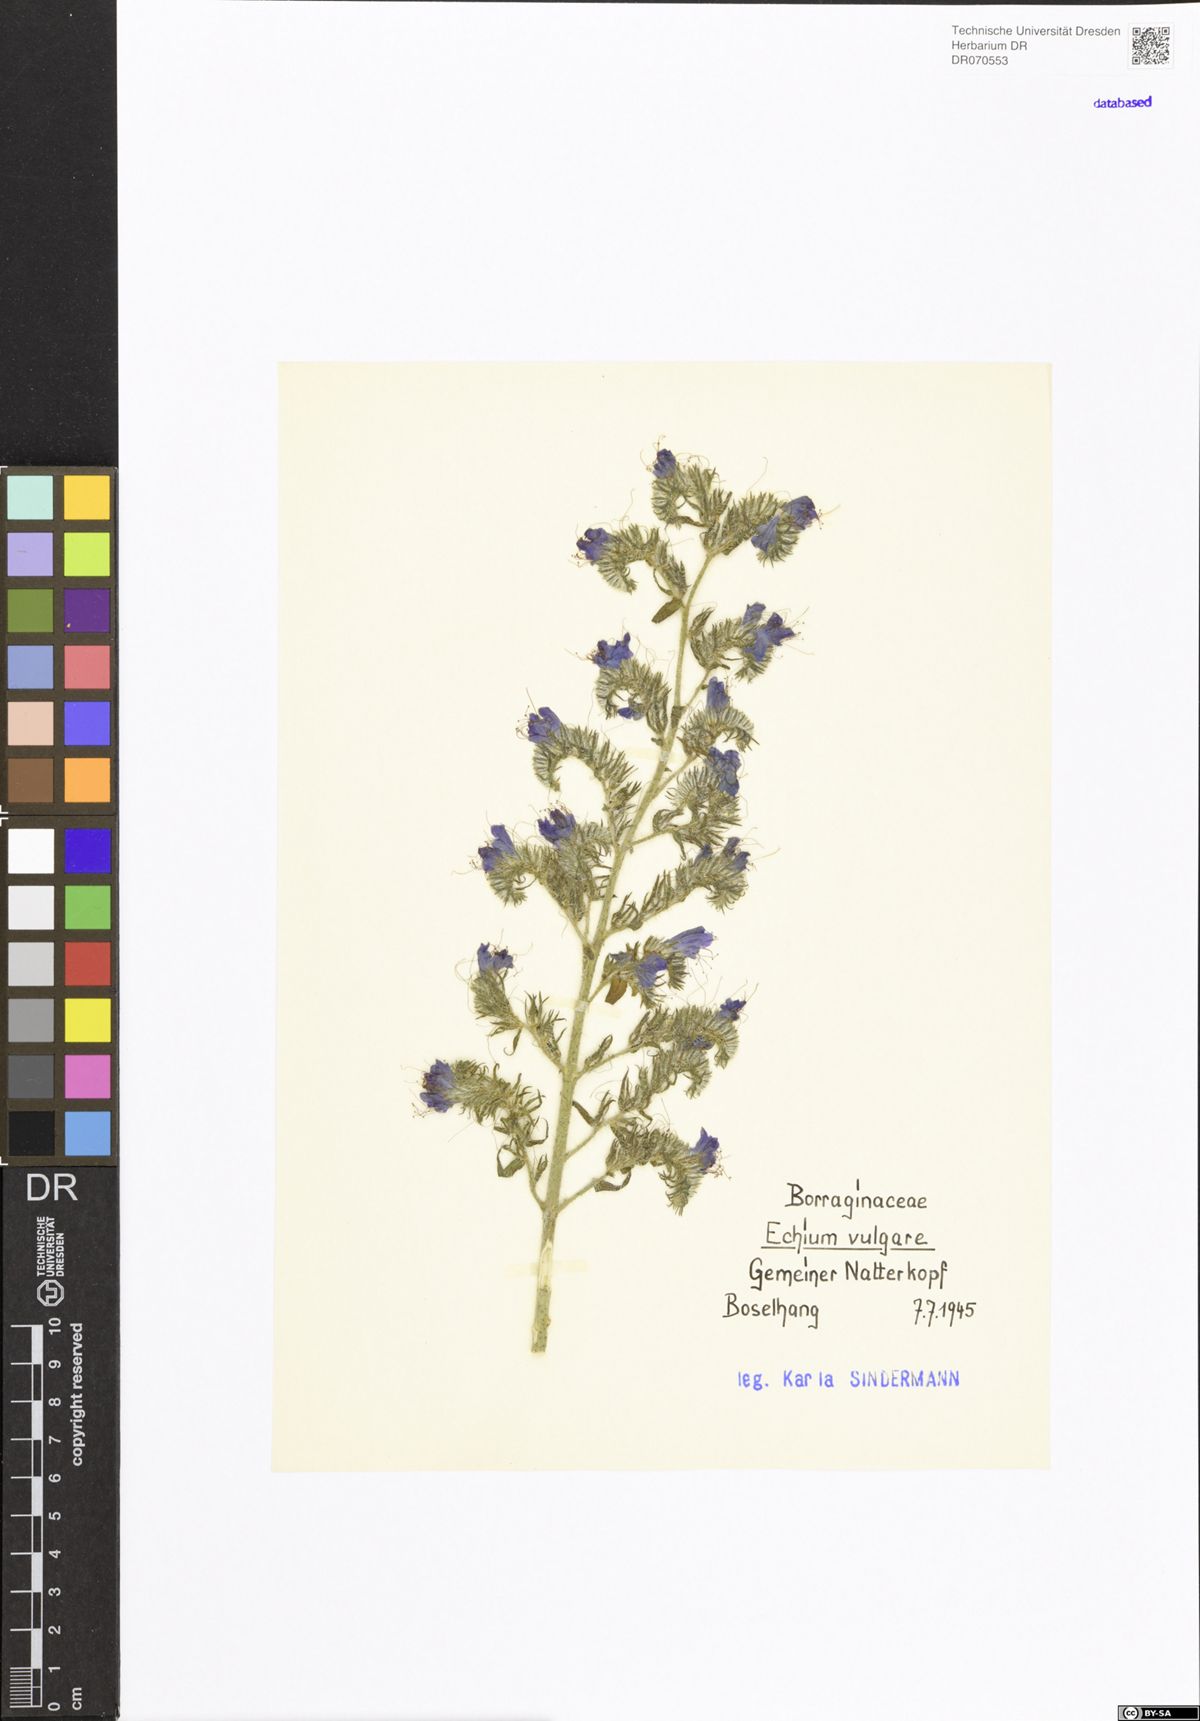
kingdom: Plantae
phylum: Tracheophyta
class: Magnoliopsida
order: Boraginales
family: Boraginaceae
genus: Echium
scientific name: Echium vulgare
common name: Common viper's bugloss
